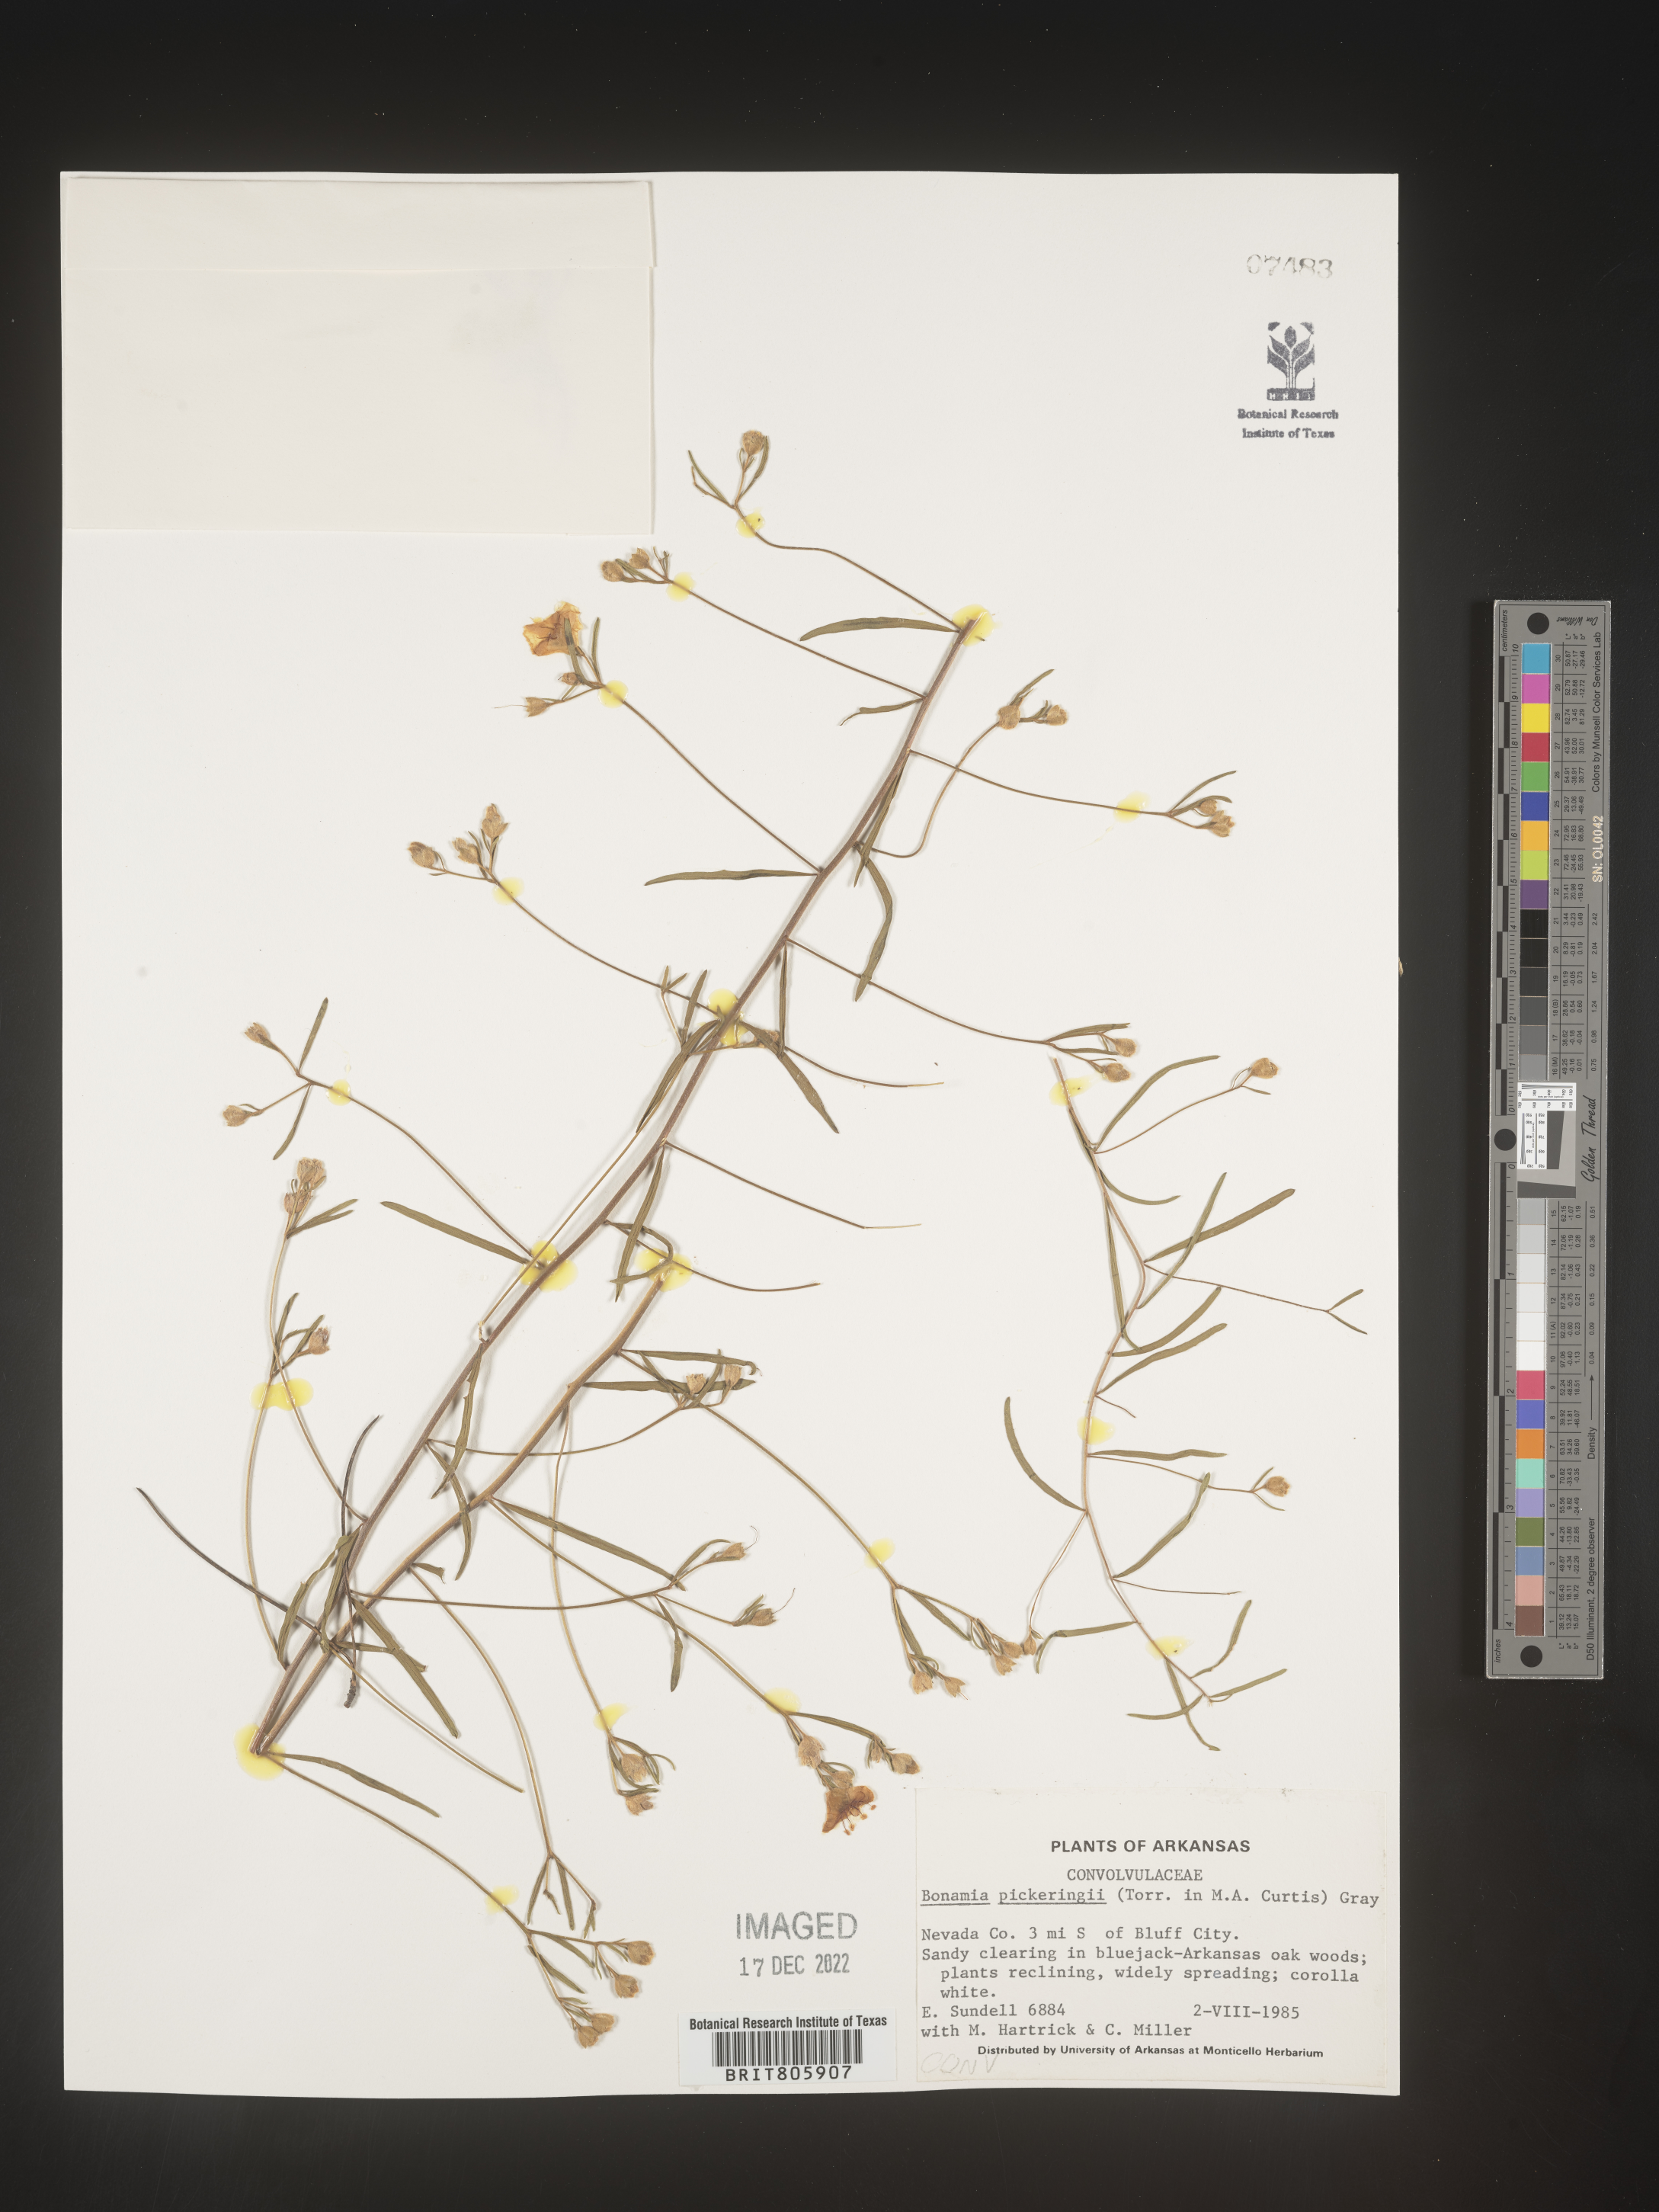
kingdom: Plantae
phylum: Tracheophyta
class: Magnoliopsida
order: Solanales
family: Convolvulaceae
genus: Stylisma
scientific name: Stylisma
